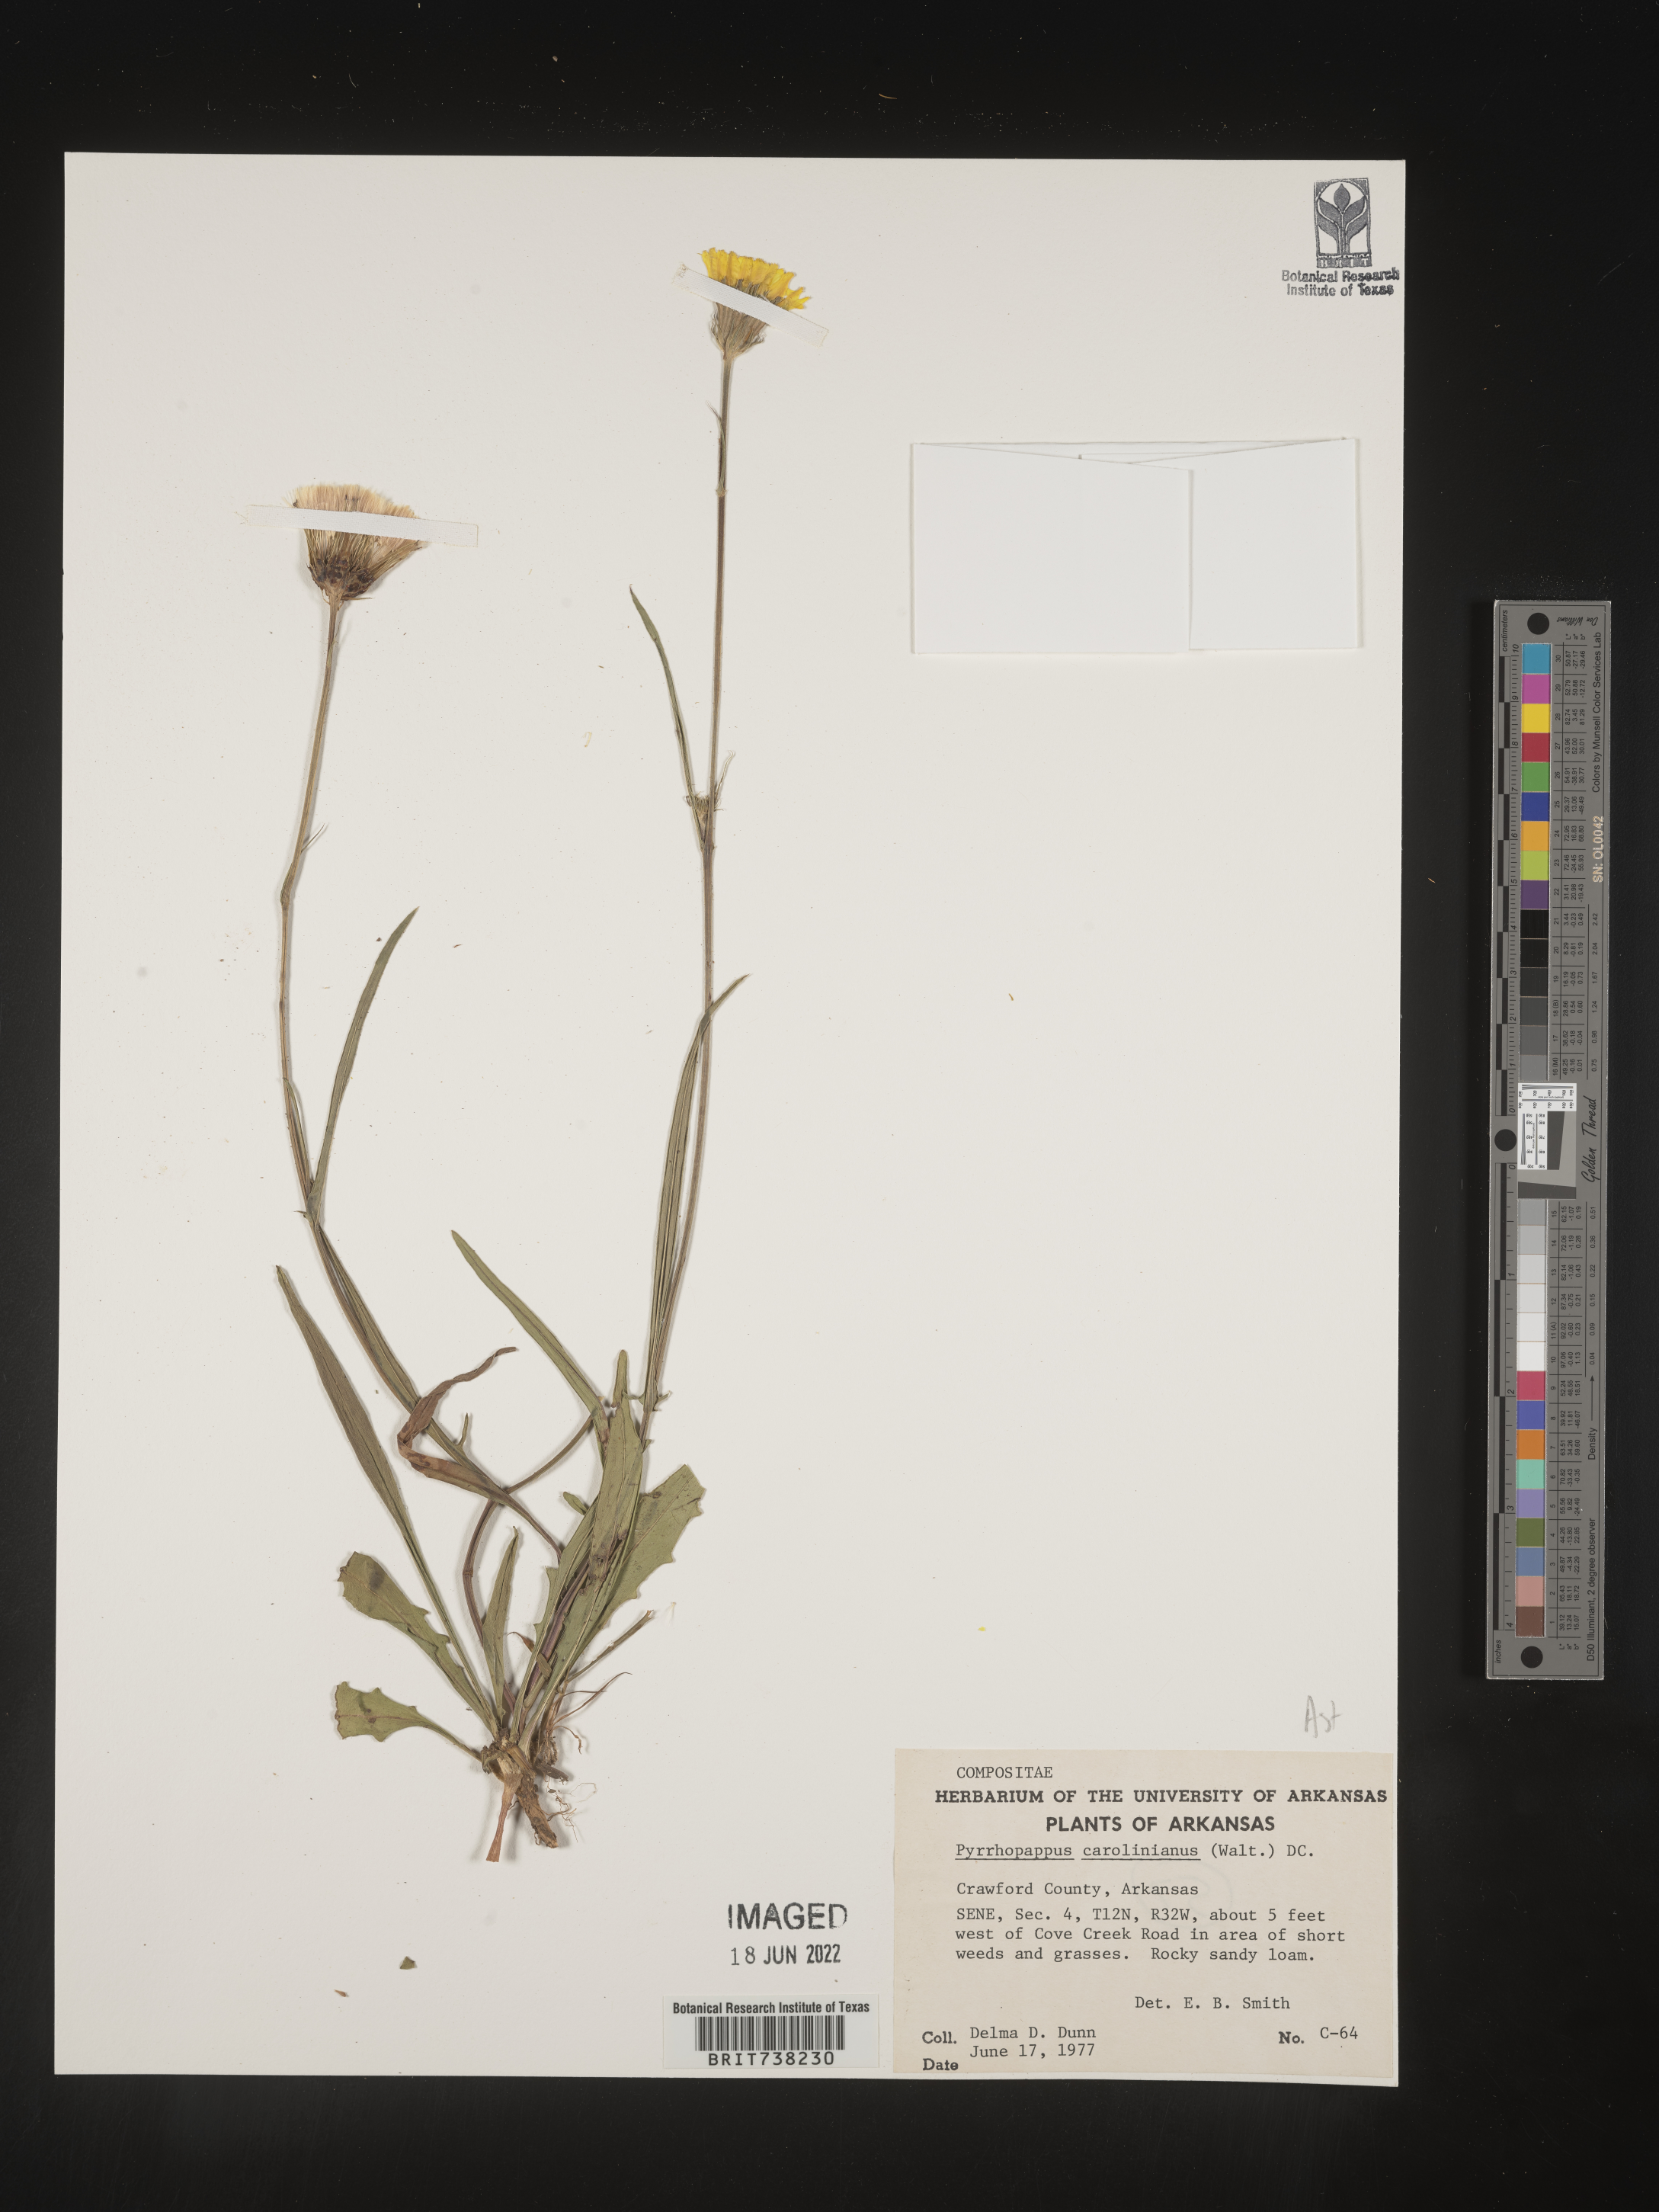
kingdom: Plantae
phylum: Tracheophyta
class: Magnoliopsida
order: Asterales
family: Asteraceae
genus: Pyrrhopappus
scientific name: Pyrrhopappus carolinianus
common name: Carolina desert-chicory
